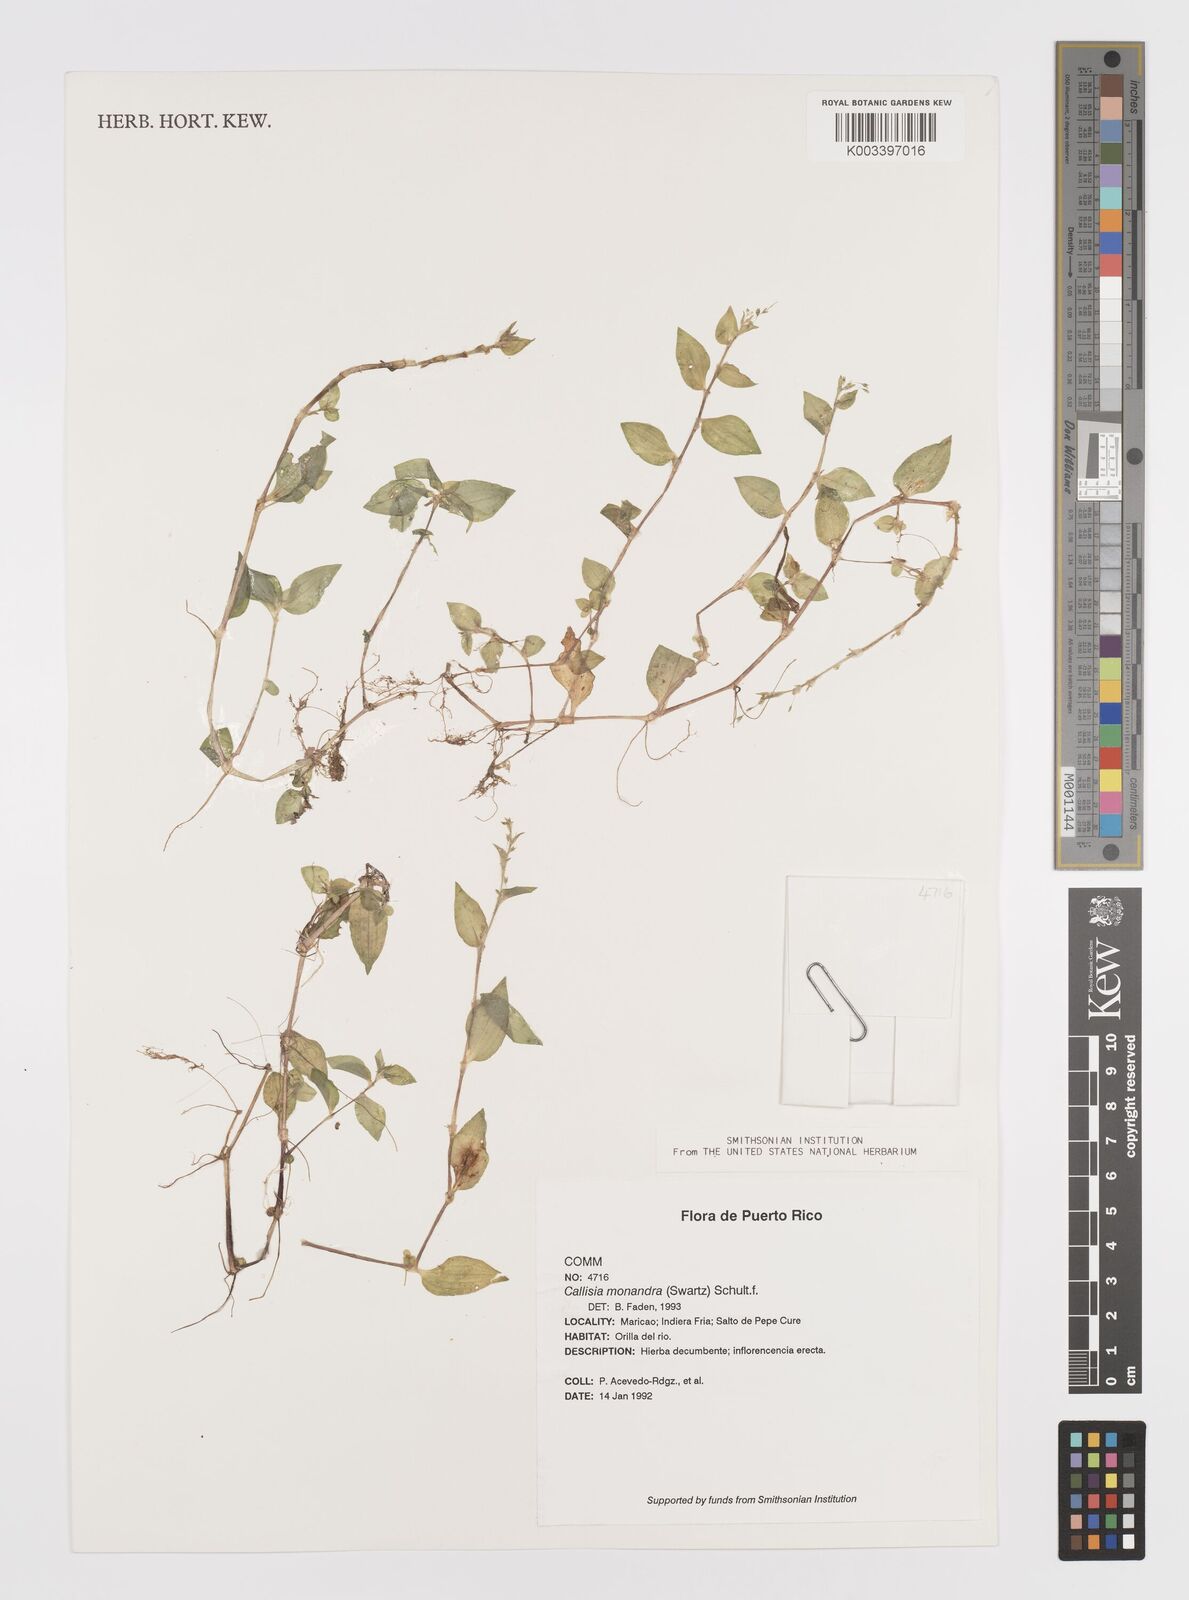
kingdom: Plantae
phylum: Tracheophyta
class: Liliopsida
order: Commelinales
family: Commelinaceae
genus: Callisia
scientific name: Callisia monandra
